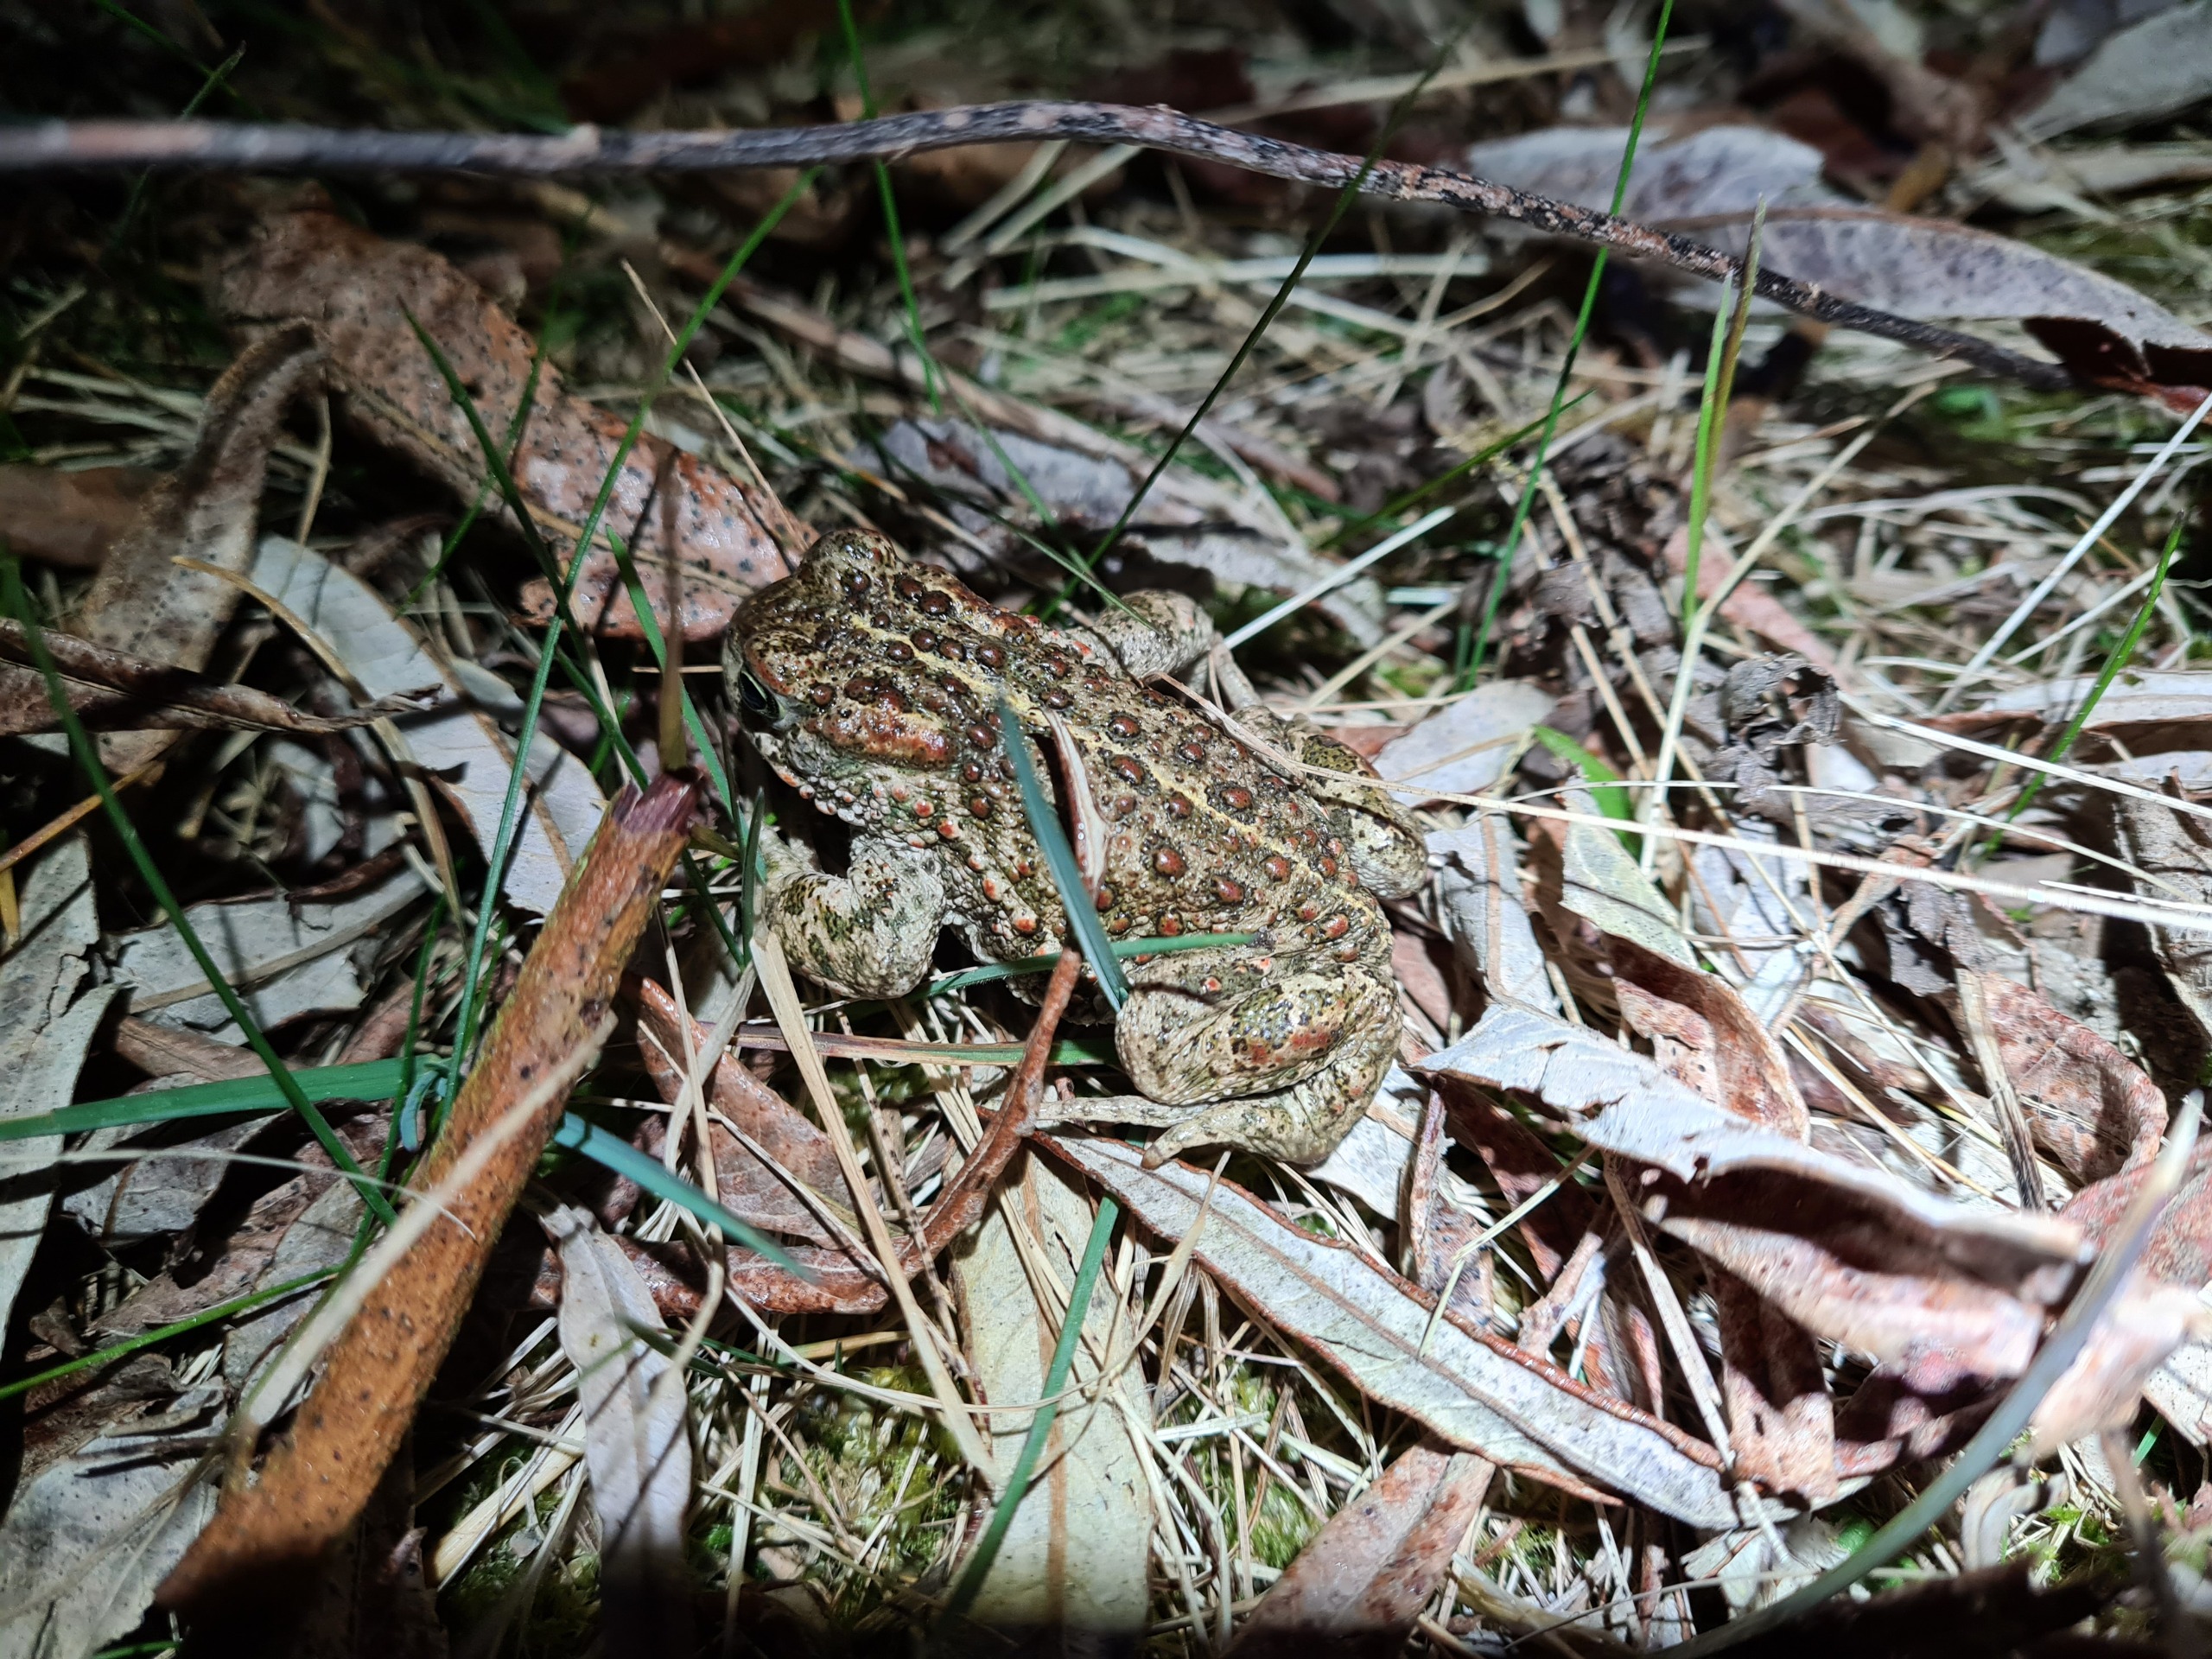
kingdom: Animalia
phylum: Chordata
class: Amphibia
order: Anura
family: Bufonidae
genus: Epidalea
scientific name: Epidalea calamita
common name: Strandtudse
